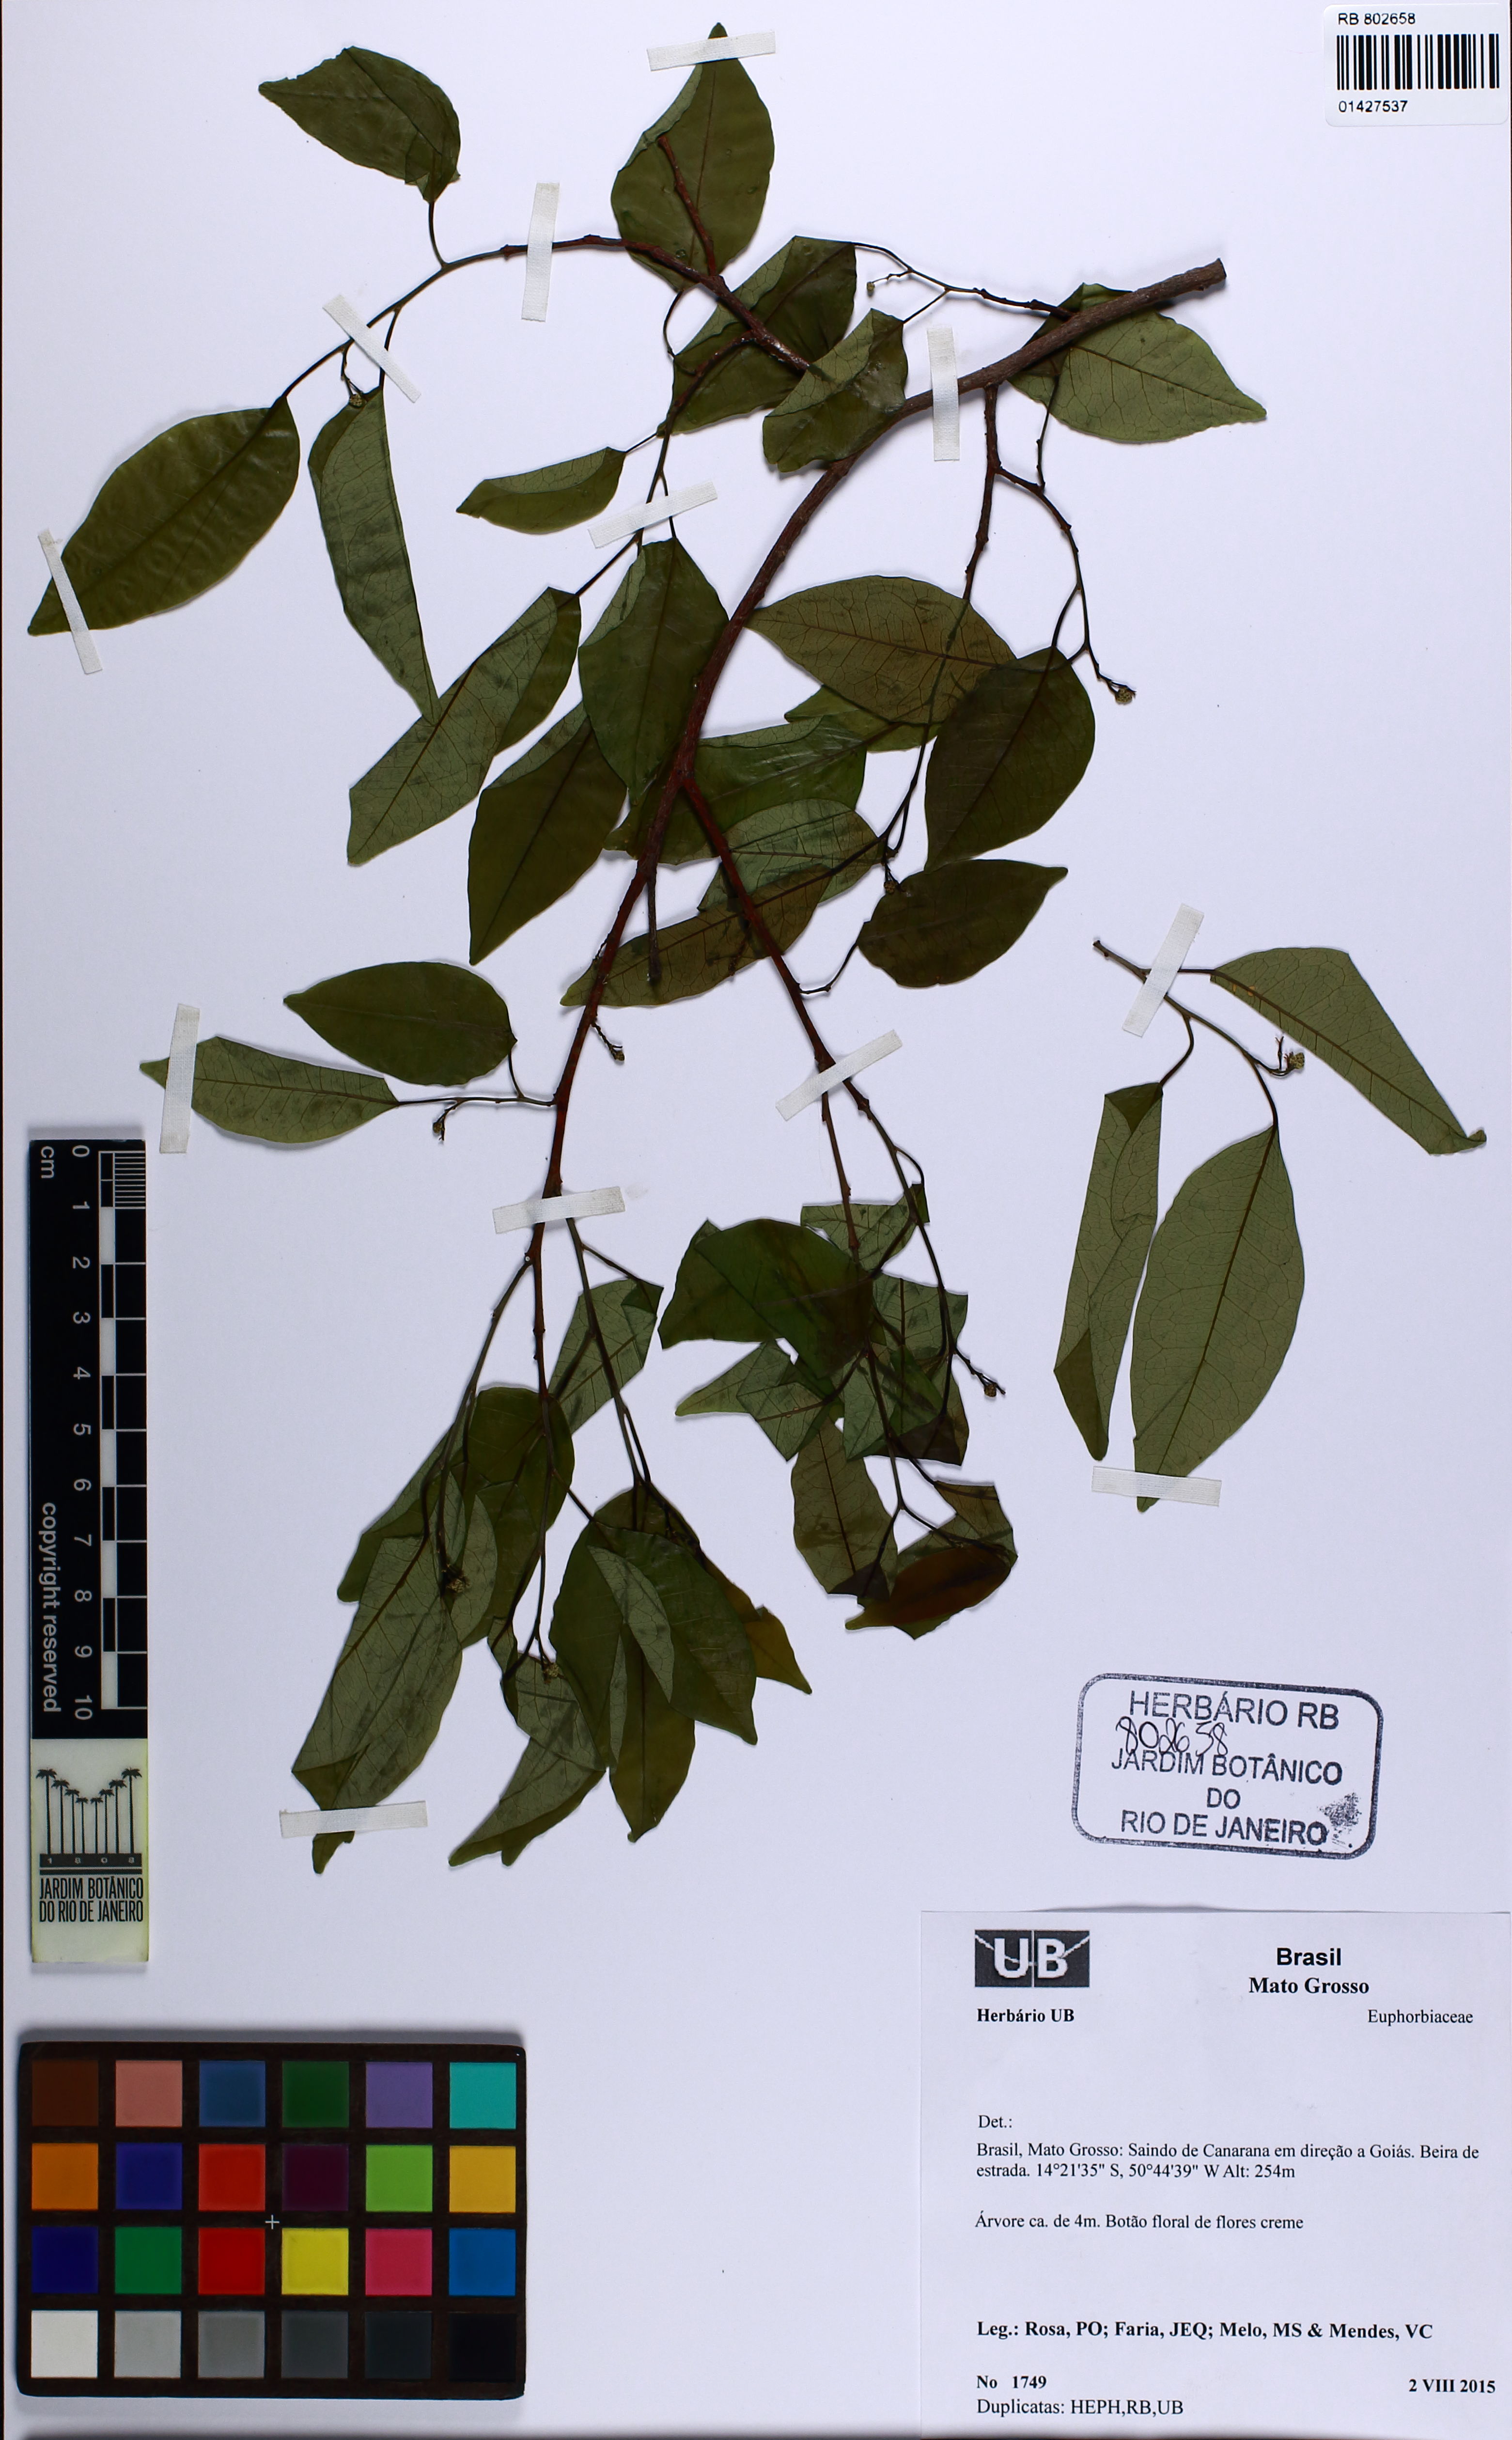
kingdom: Plantae
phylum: Tracheophyta
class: Magnoliopsida
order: Malpighiales
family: Euphorbiaceae
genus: Maprounea
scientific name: Maprounea guianensis
